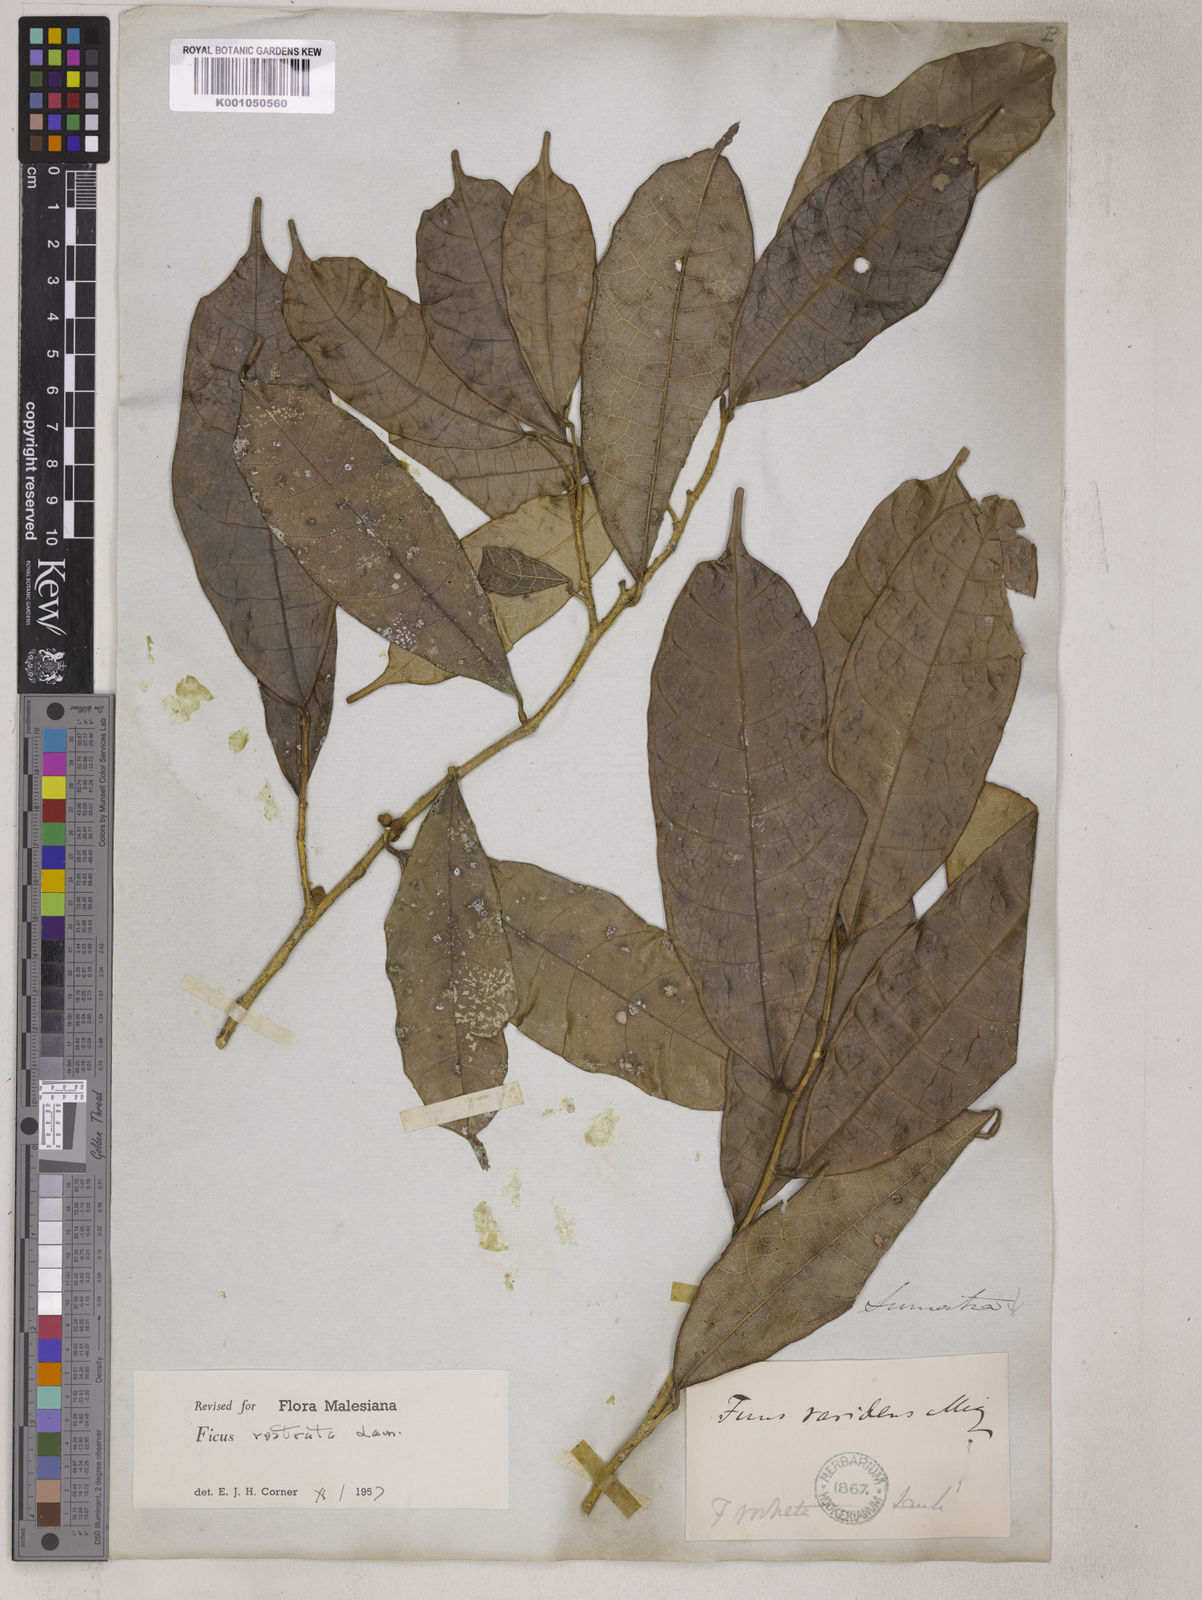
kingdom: Plantae
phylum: Tracheophyta
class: Magnoliopsida
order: Rosales
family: Moraceae
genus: Ficus
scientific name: Ficus sinuata
